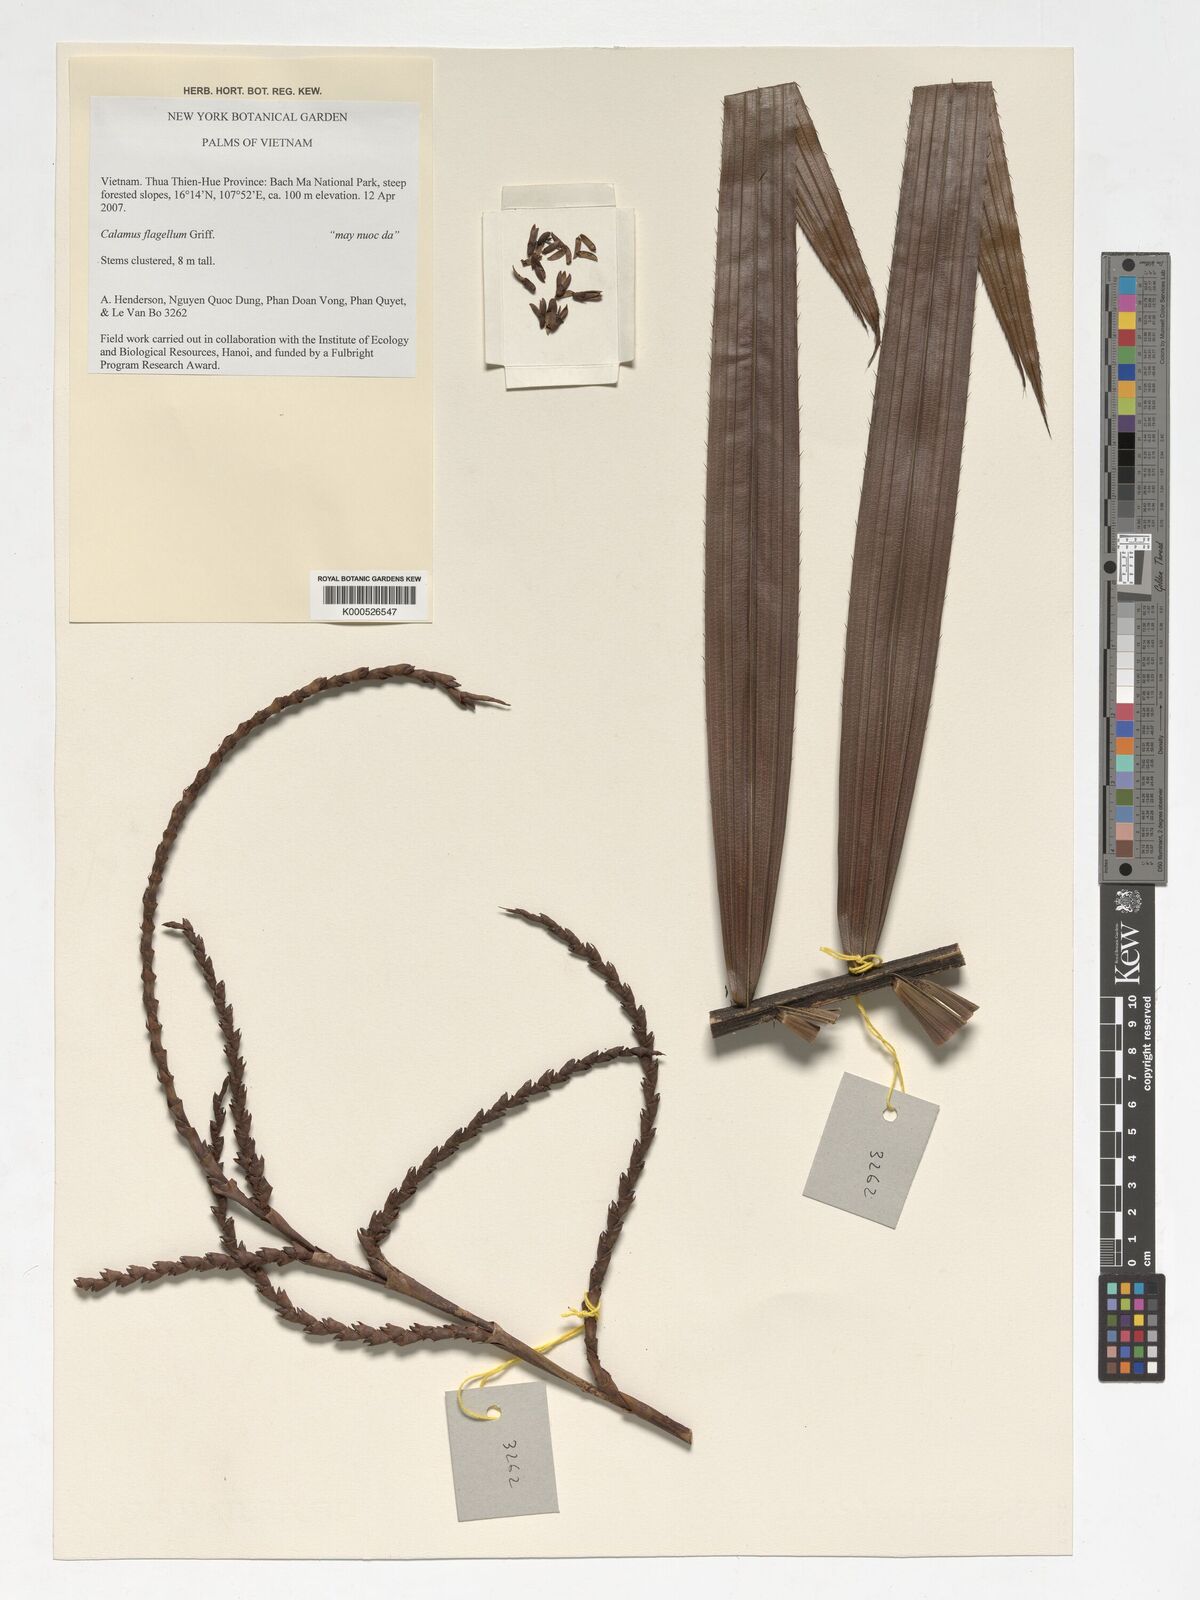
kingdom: Plantae
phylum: Tracheophyta
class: Liliopsida
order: Arecales
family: Arecaceae
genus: Calamus
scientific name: Calamus
